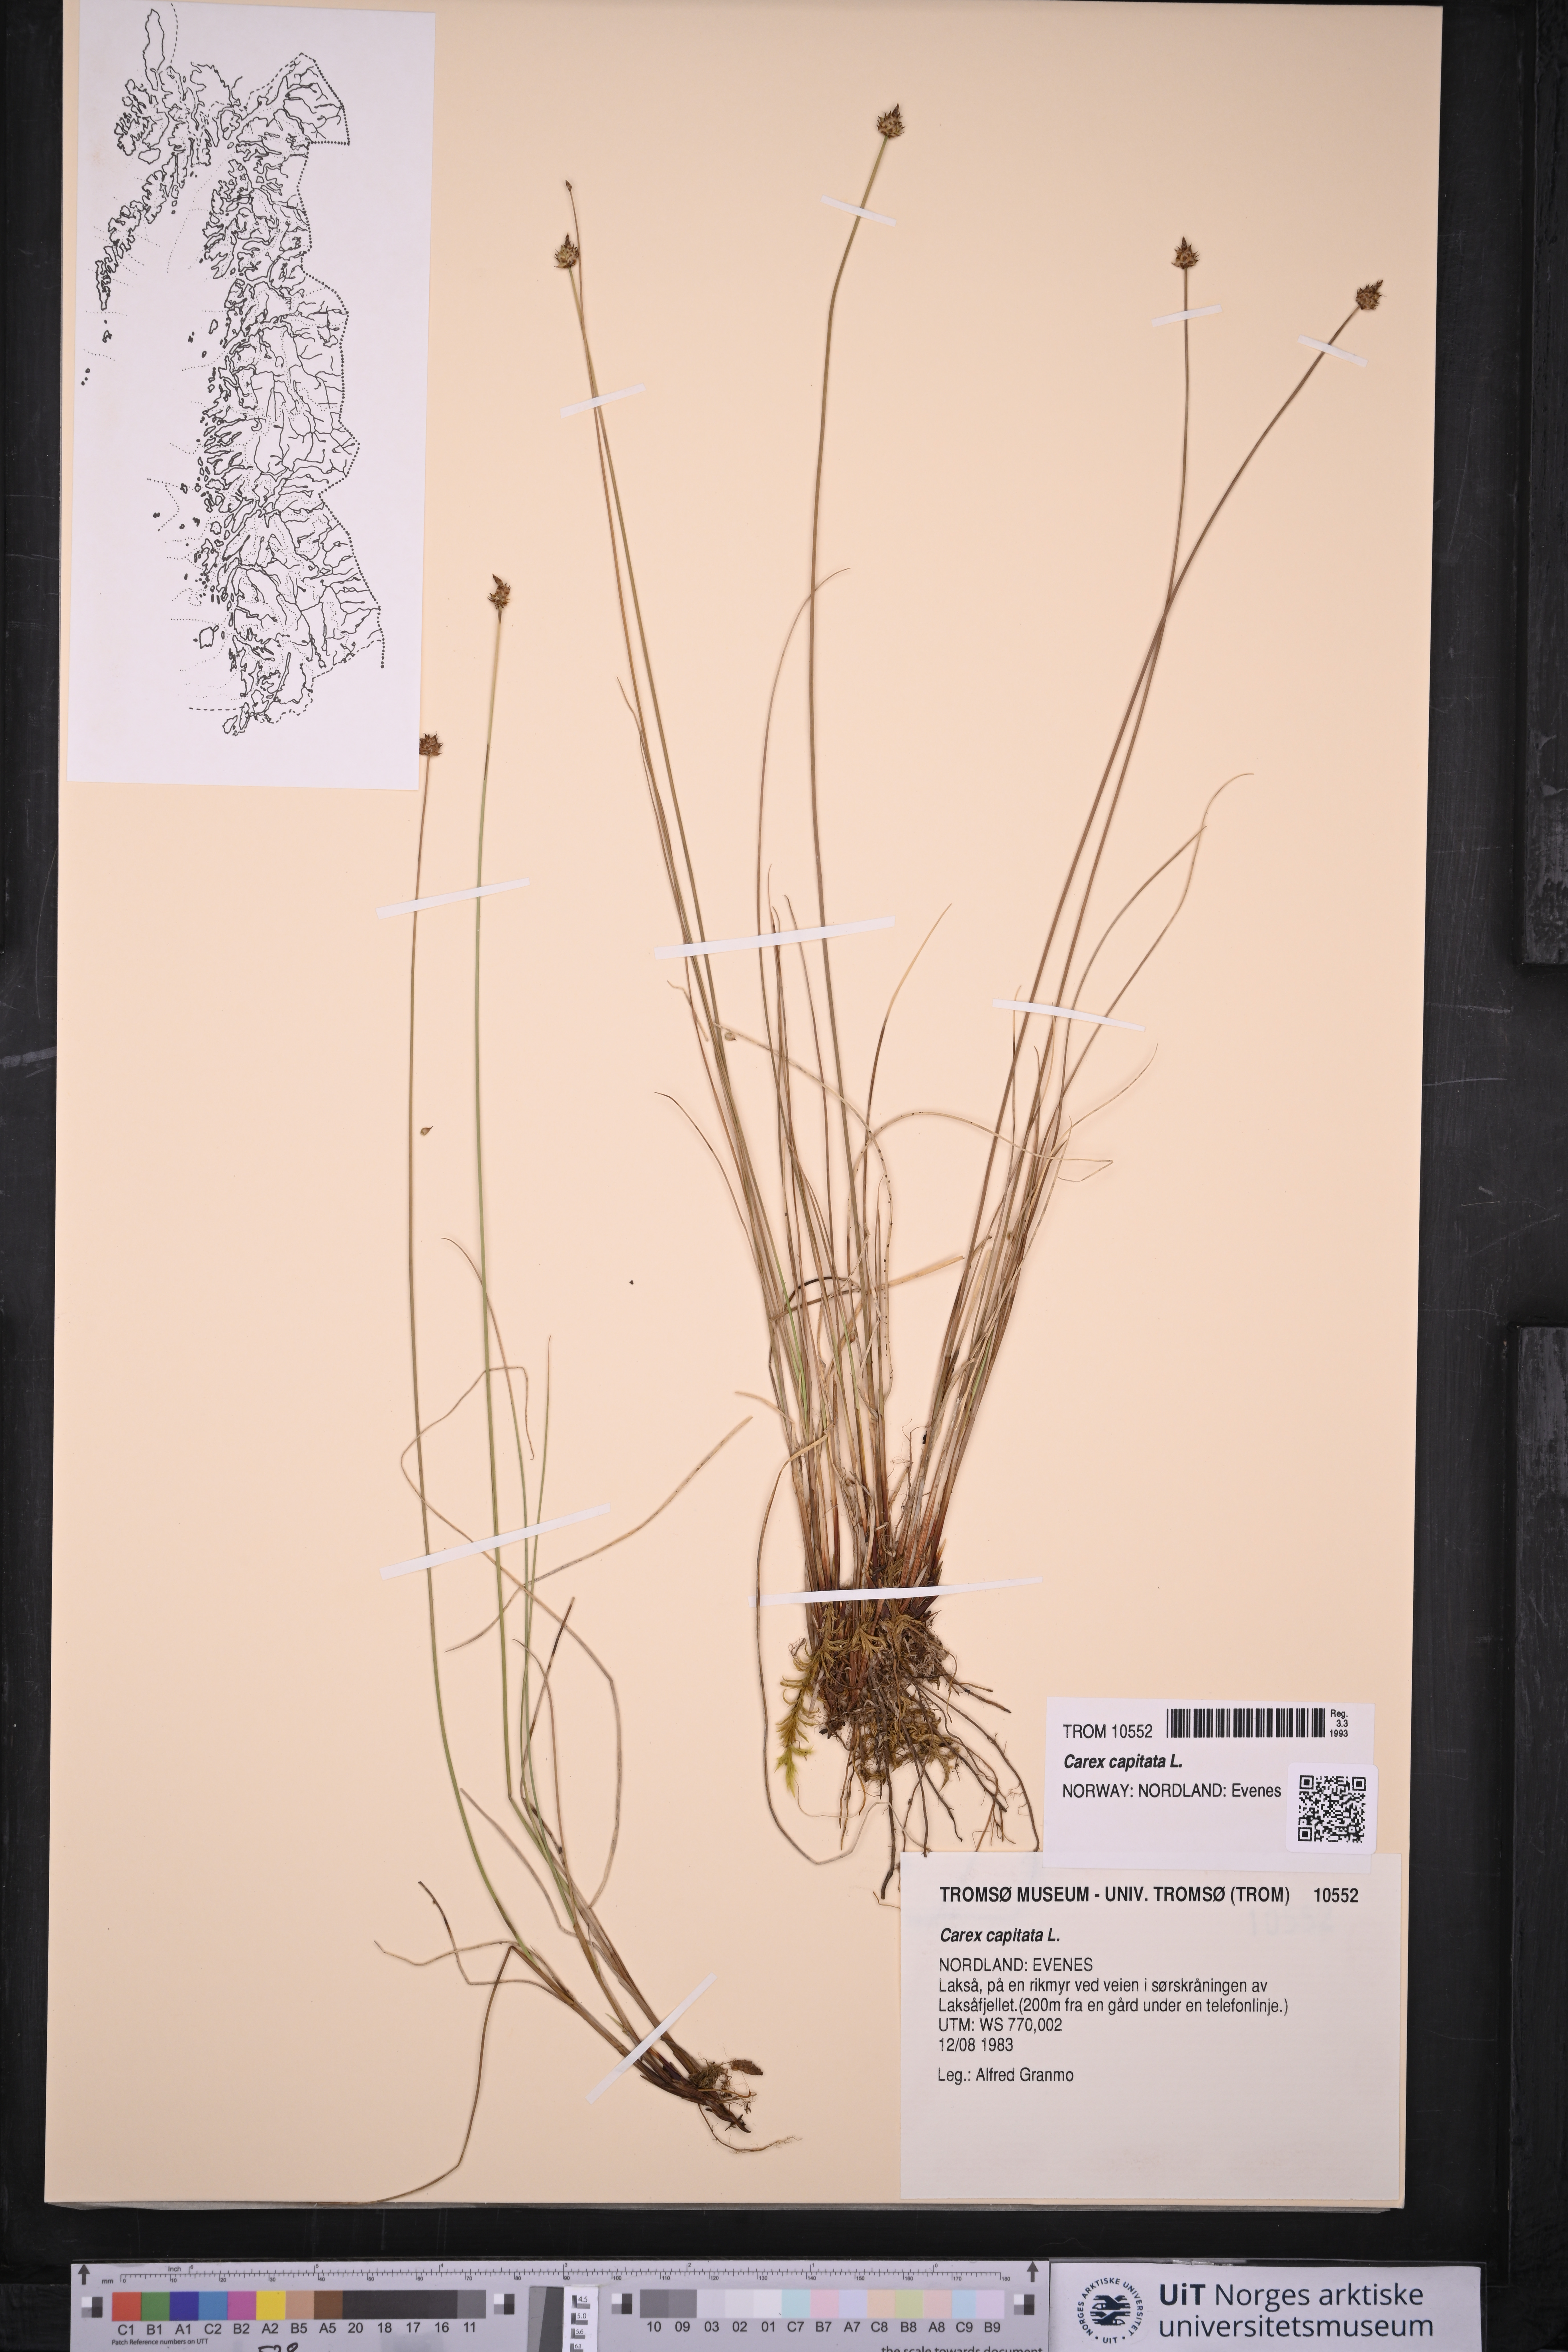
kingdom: Plantae
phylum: Tracheophyta
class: Liliopsida
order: Poales
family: Cyperaceae
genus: Carex
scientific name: Carex capitata
